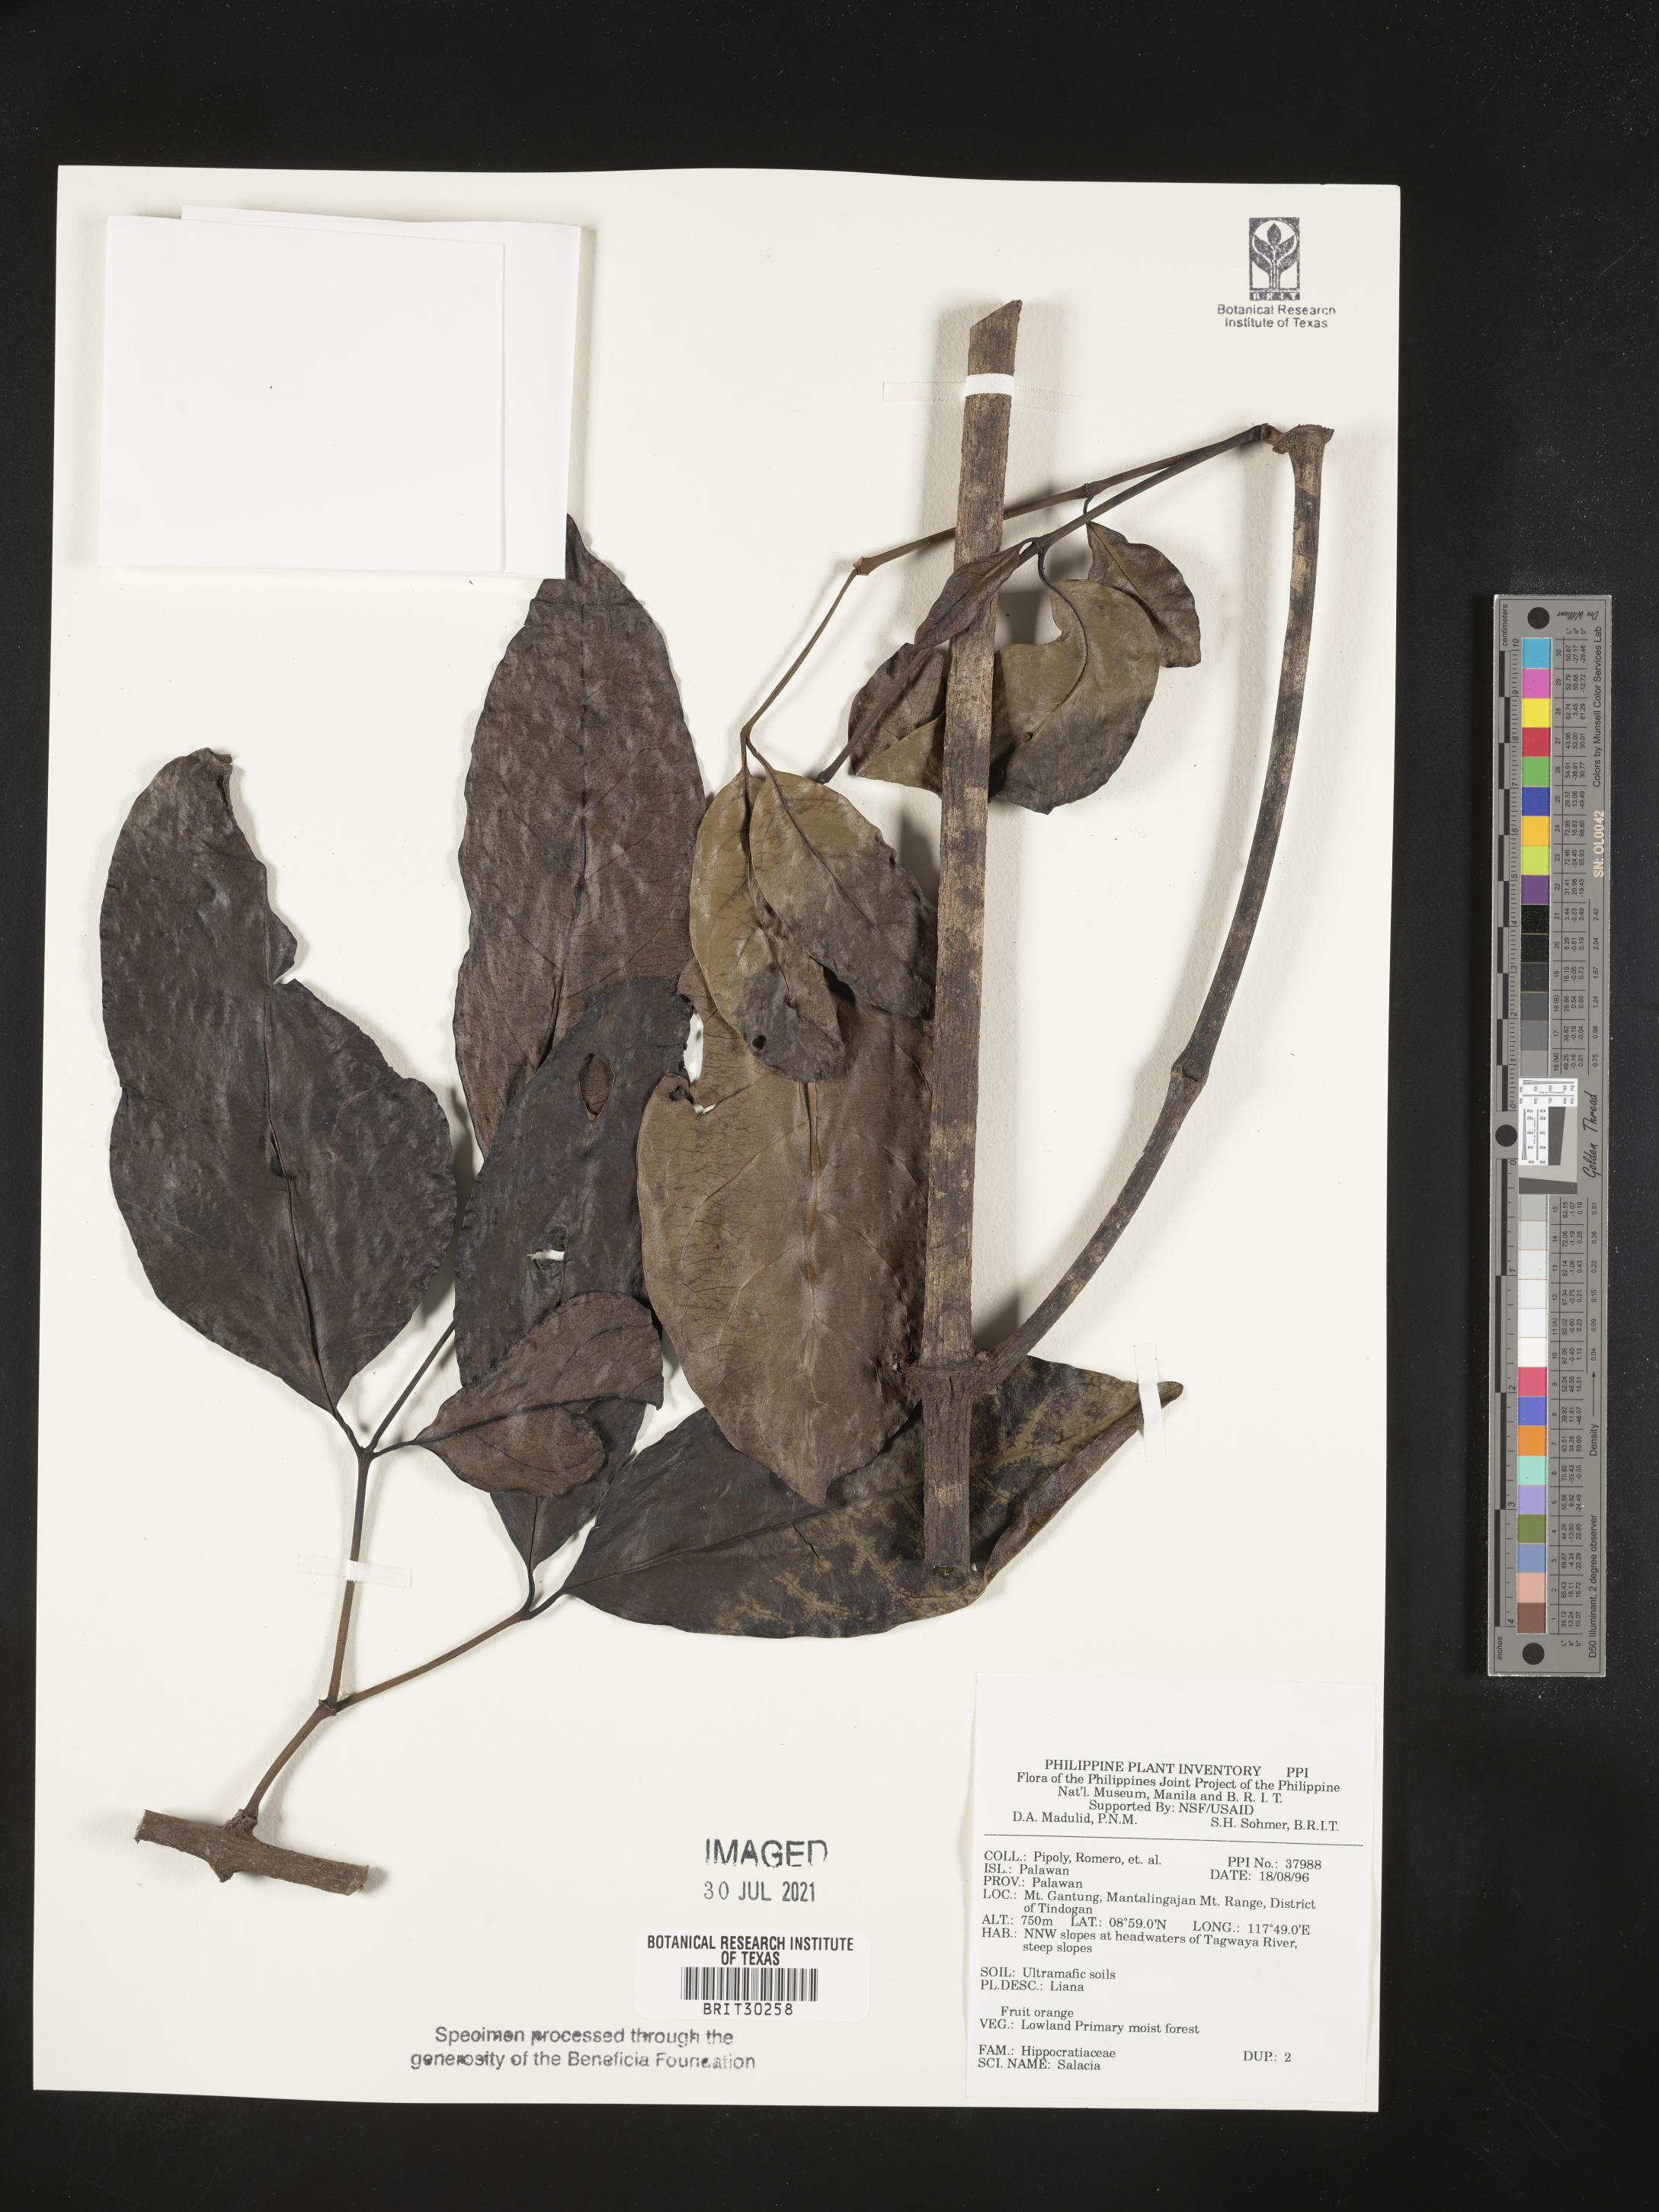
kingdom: Plantae
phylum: Tracheophyta
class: Magnoliopsida
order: Celastrales
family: Celastraceae
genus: Salacia
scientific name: Salacia
